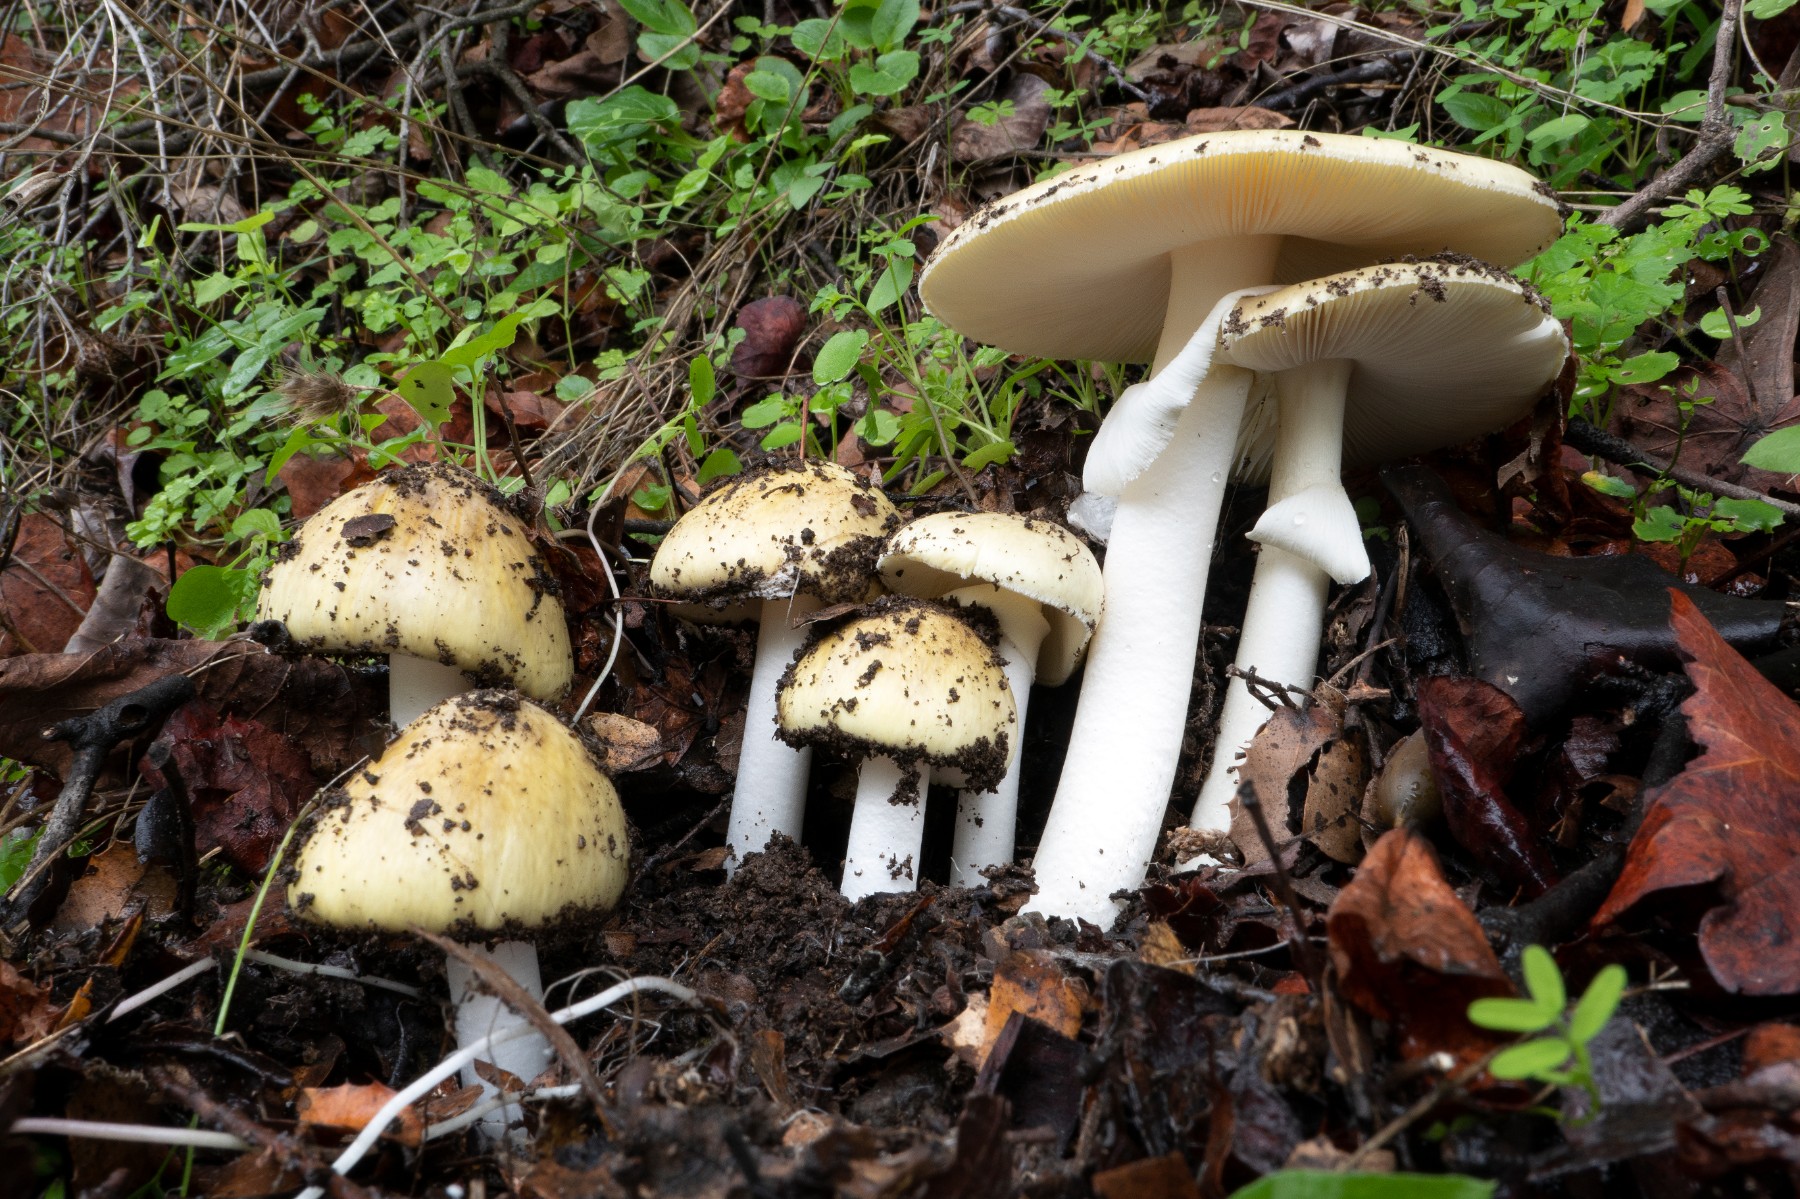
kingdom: Fungi
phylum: Basidiomycota
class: Agaricomycetes
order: Agaricales
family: Amanitaceae
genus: Amanita
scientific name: Amanita phalloides
